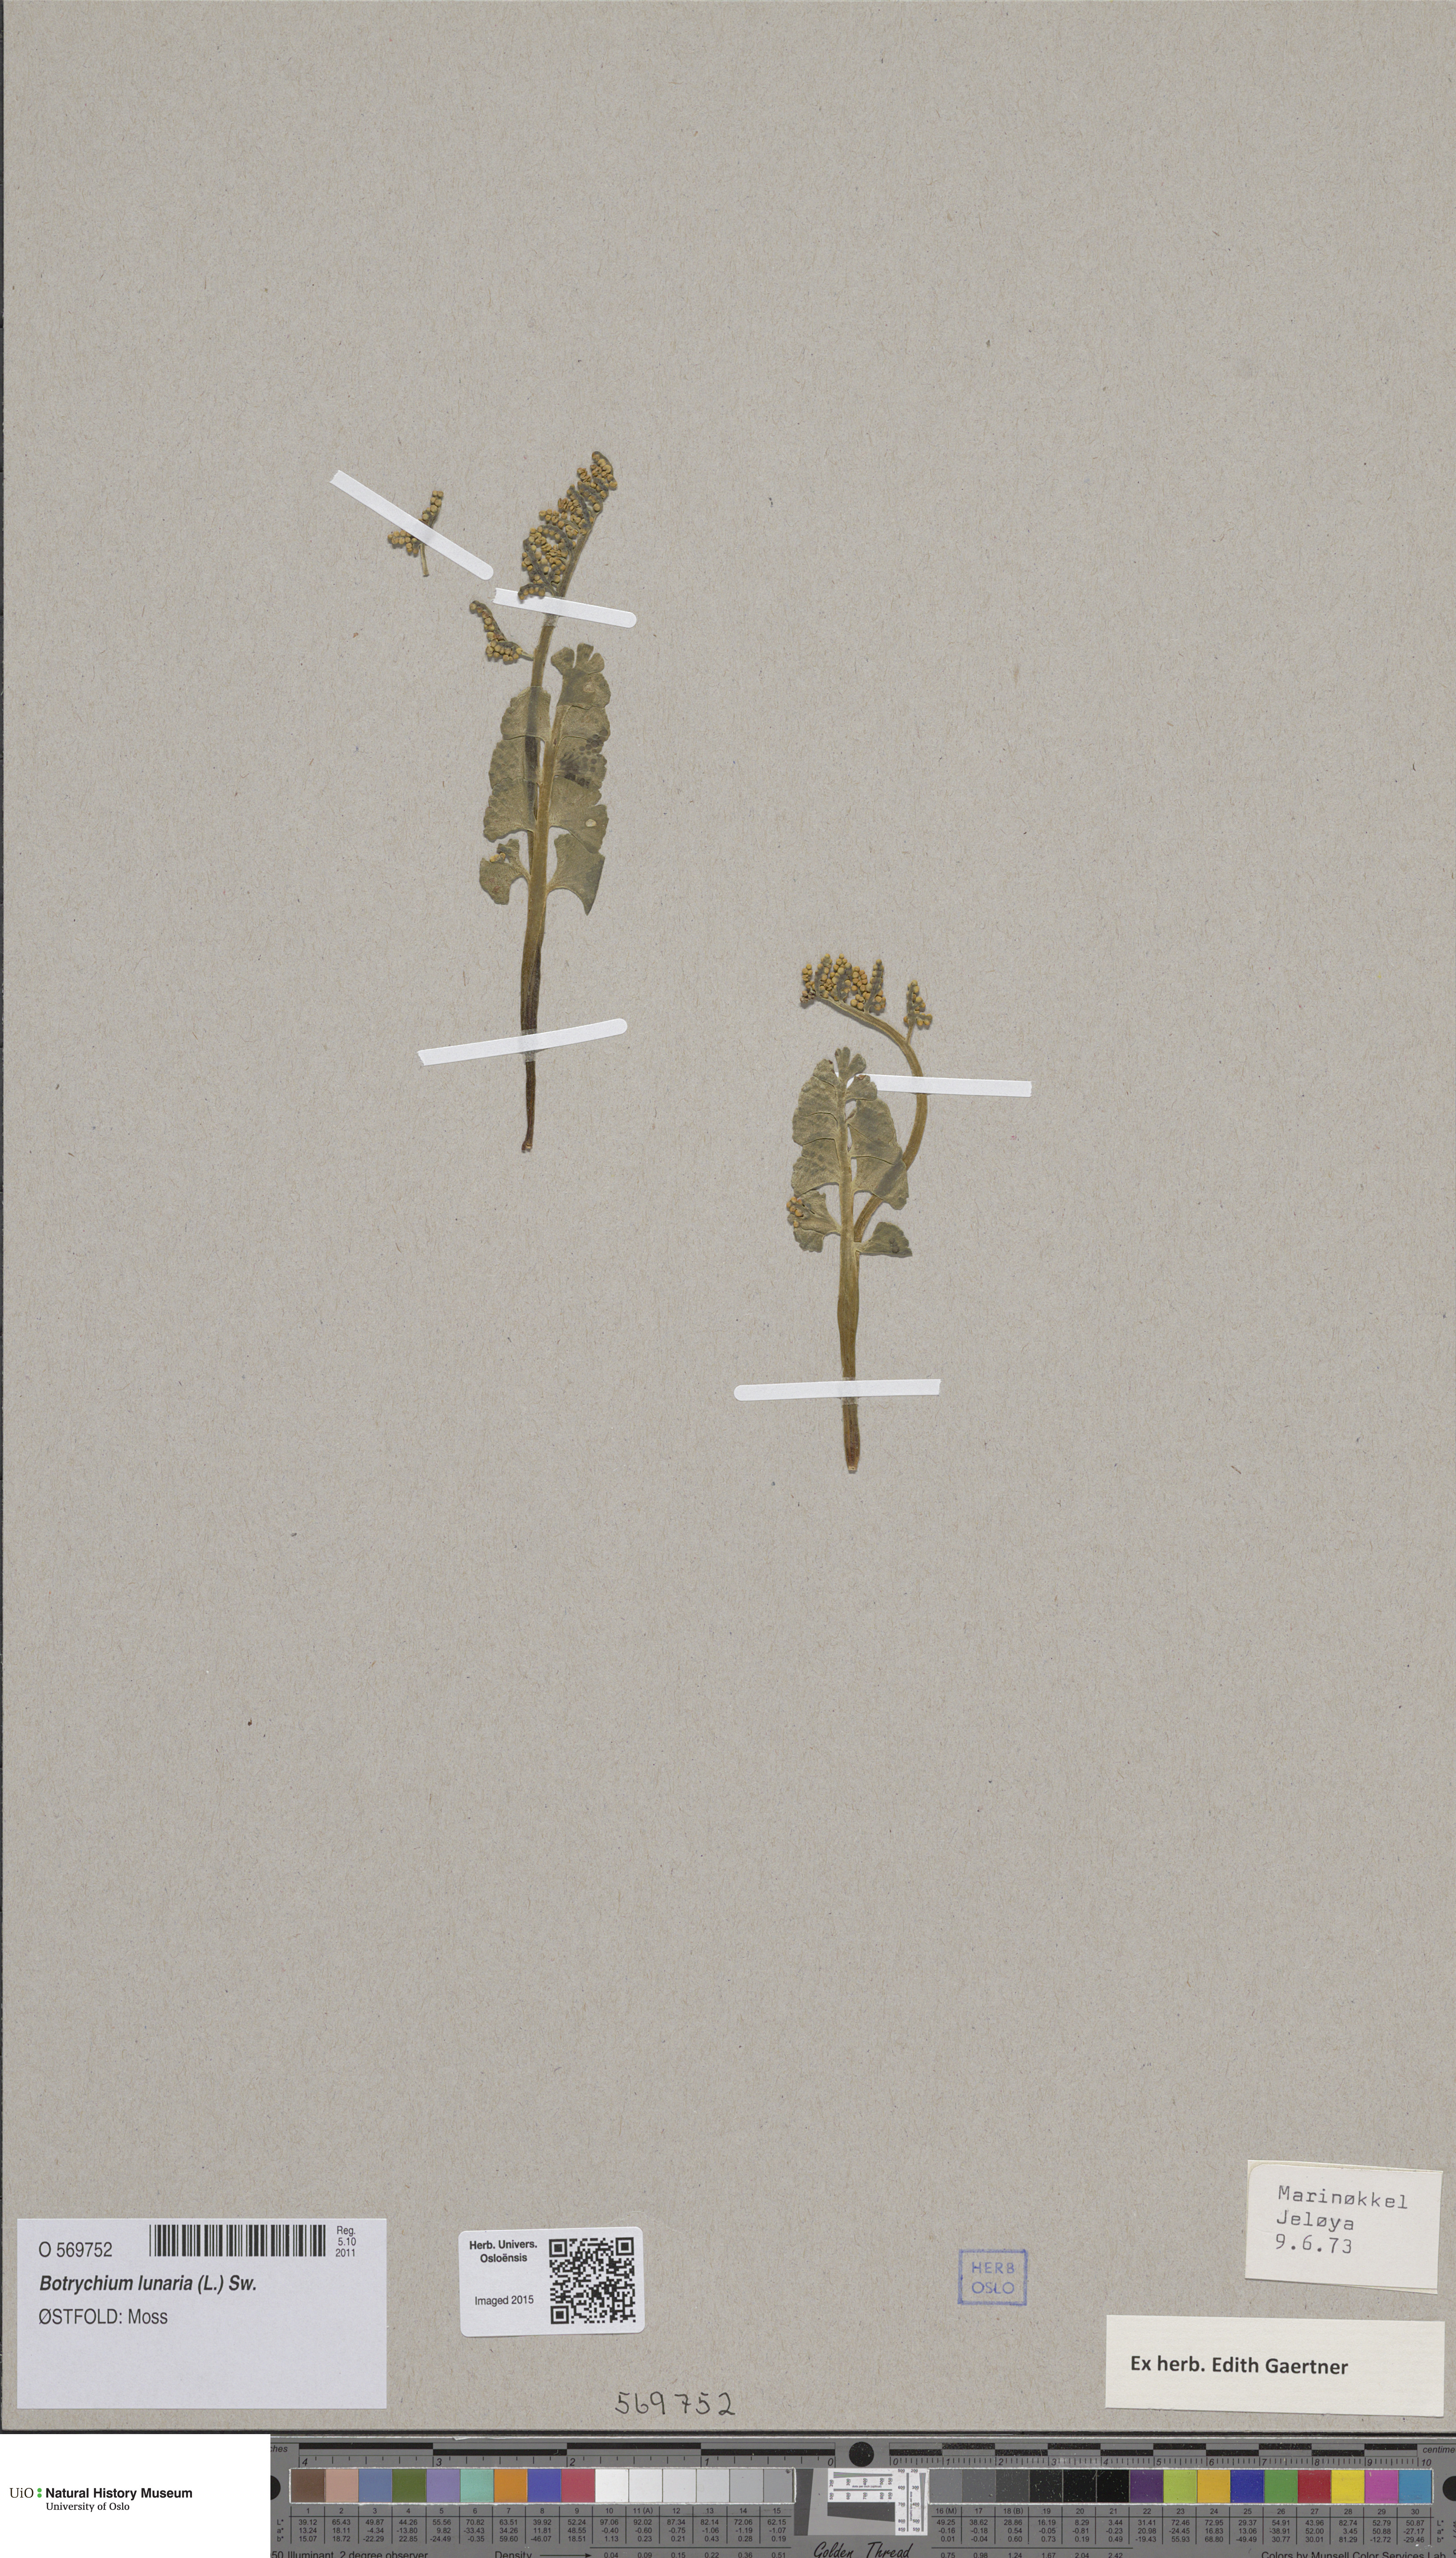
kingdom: Plantae
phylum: Tracheophyta
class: Polypodiopsida
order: Ophioglossales
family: Ophioglossaceae
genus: Botrychium
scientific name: Botrychium lunaria
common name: Moonwort
